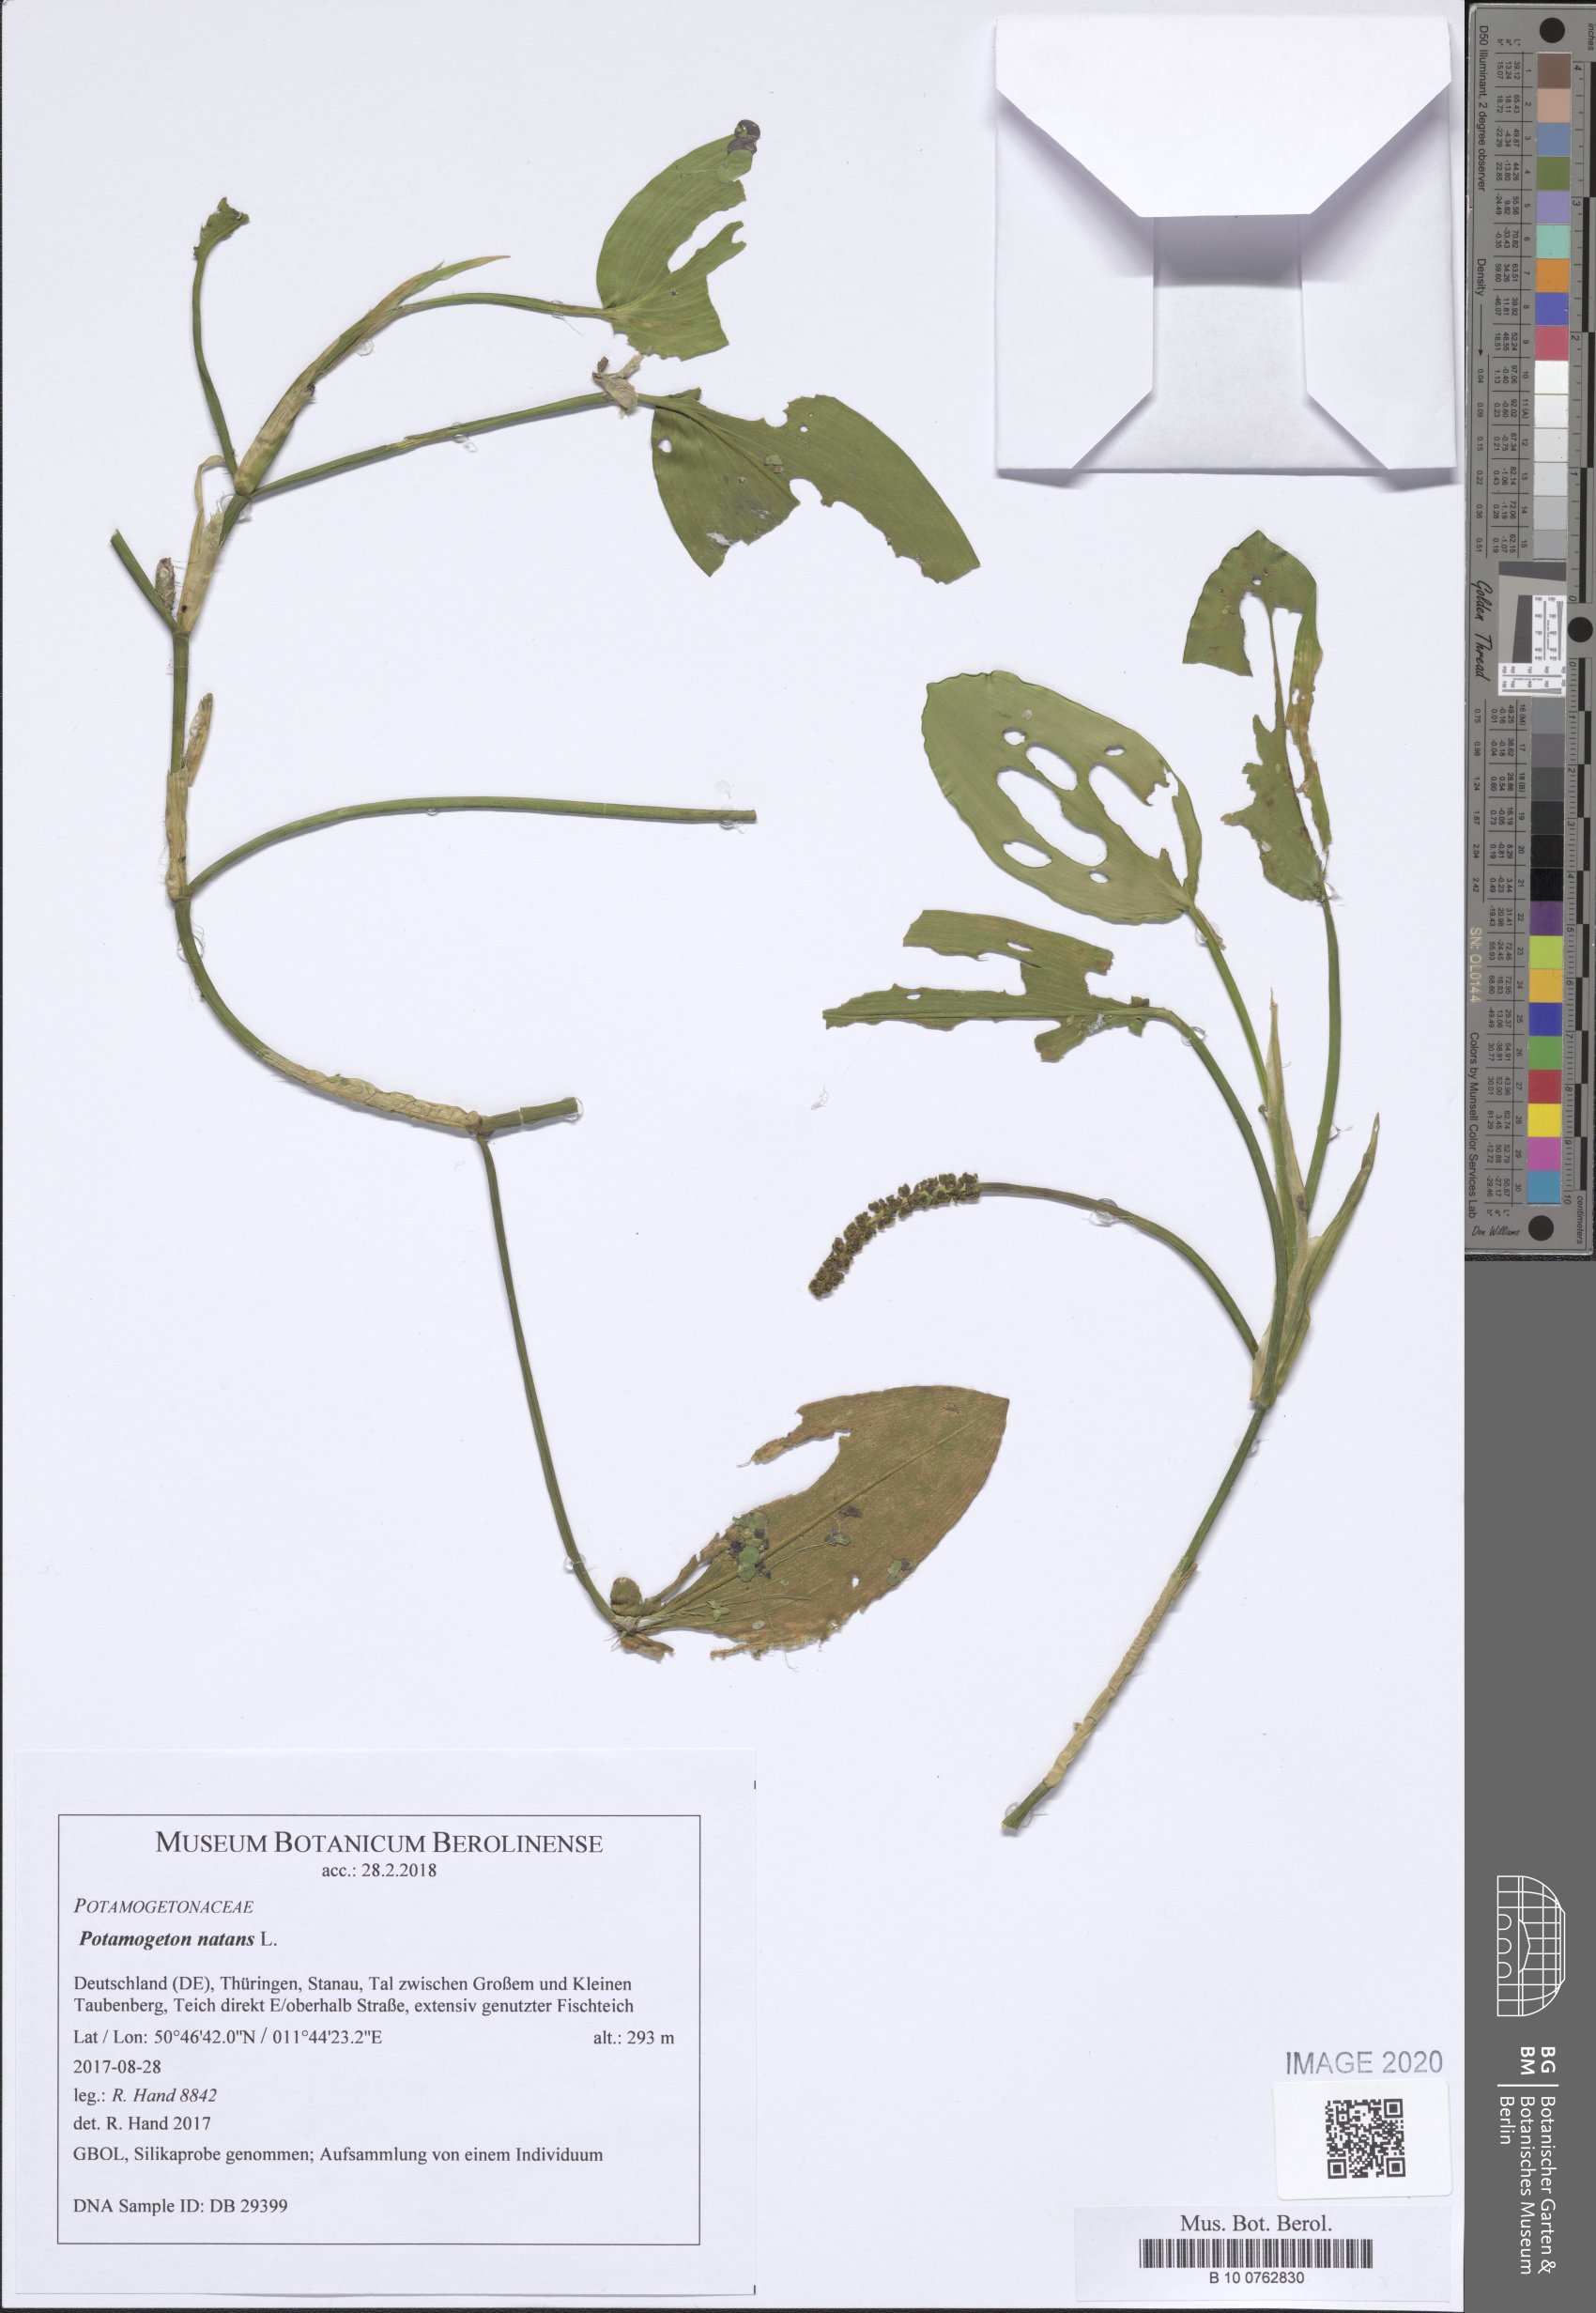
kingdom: Plantae
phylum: Tracheophyta
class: Liliopsida
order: Alismatales
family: Potamogetonaceae
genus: Potamogeton
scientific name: Potamogeton natans
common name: Broad-leaved pondweed
